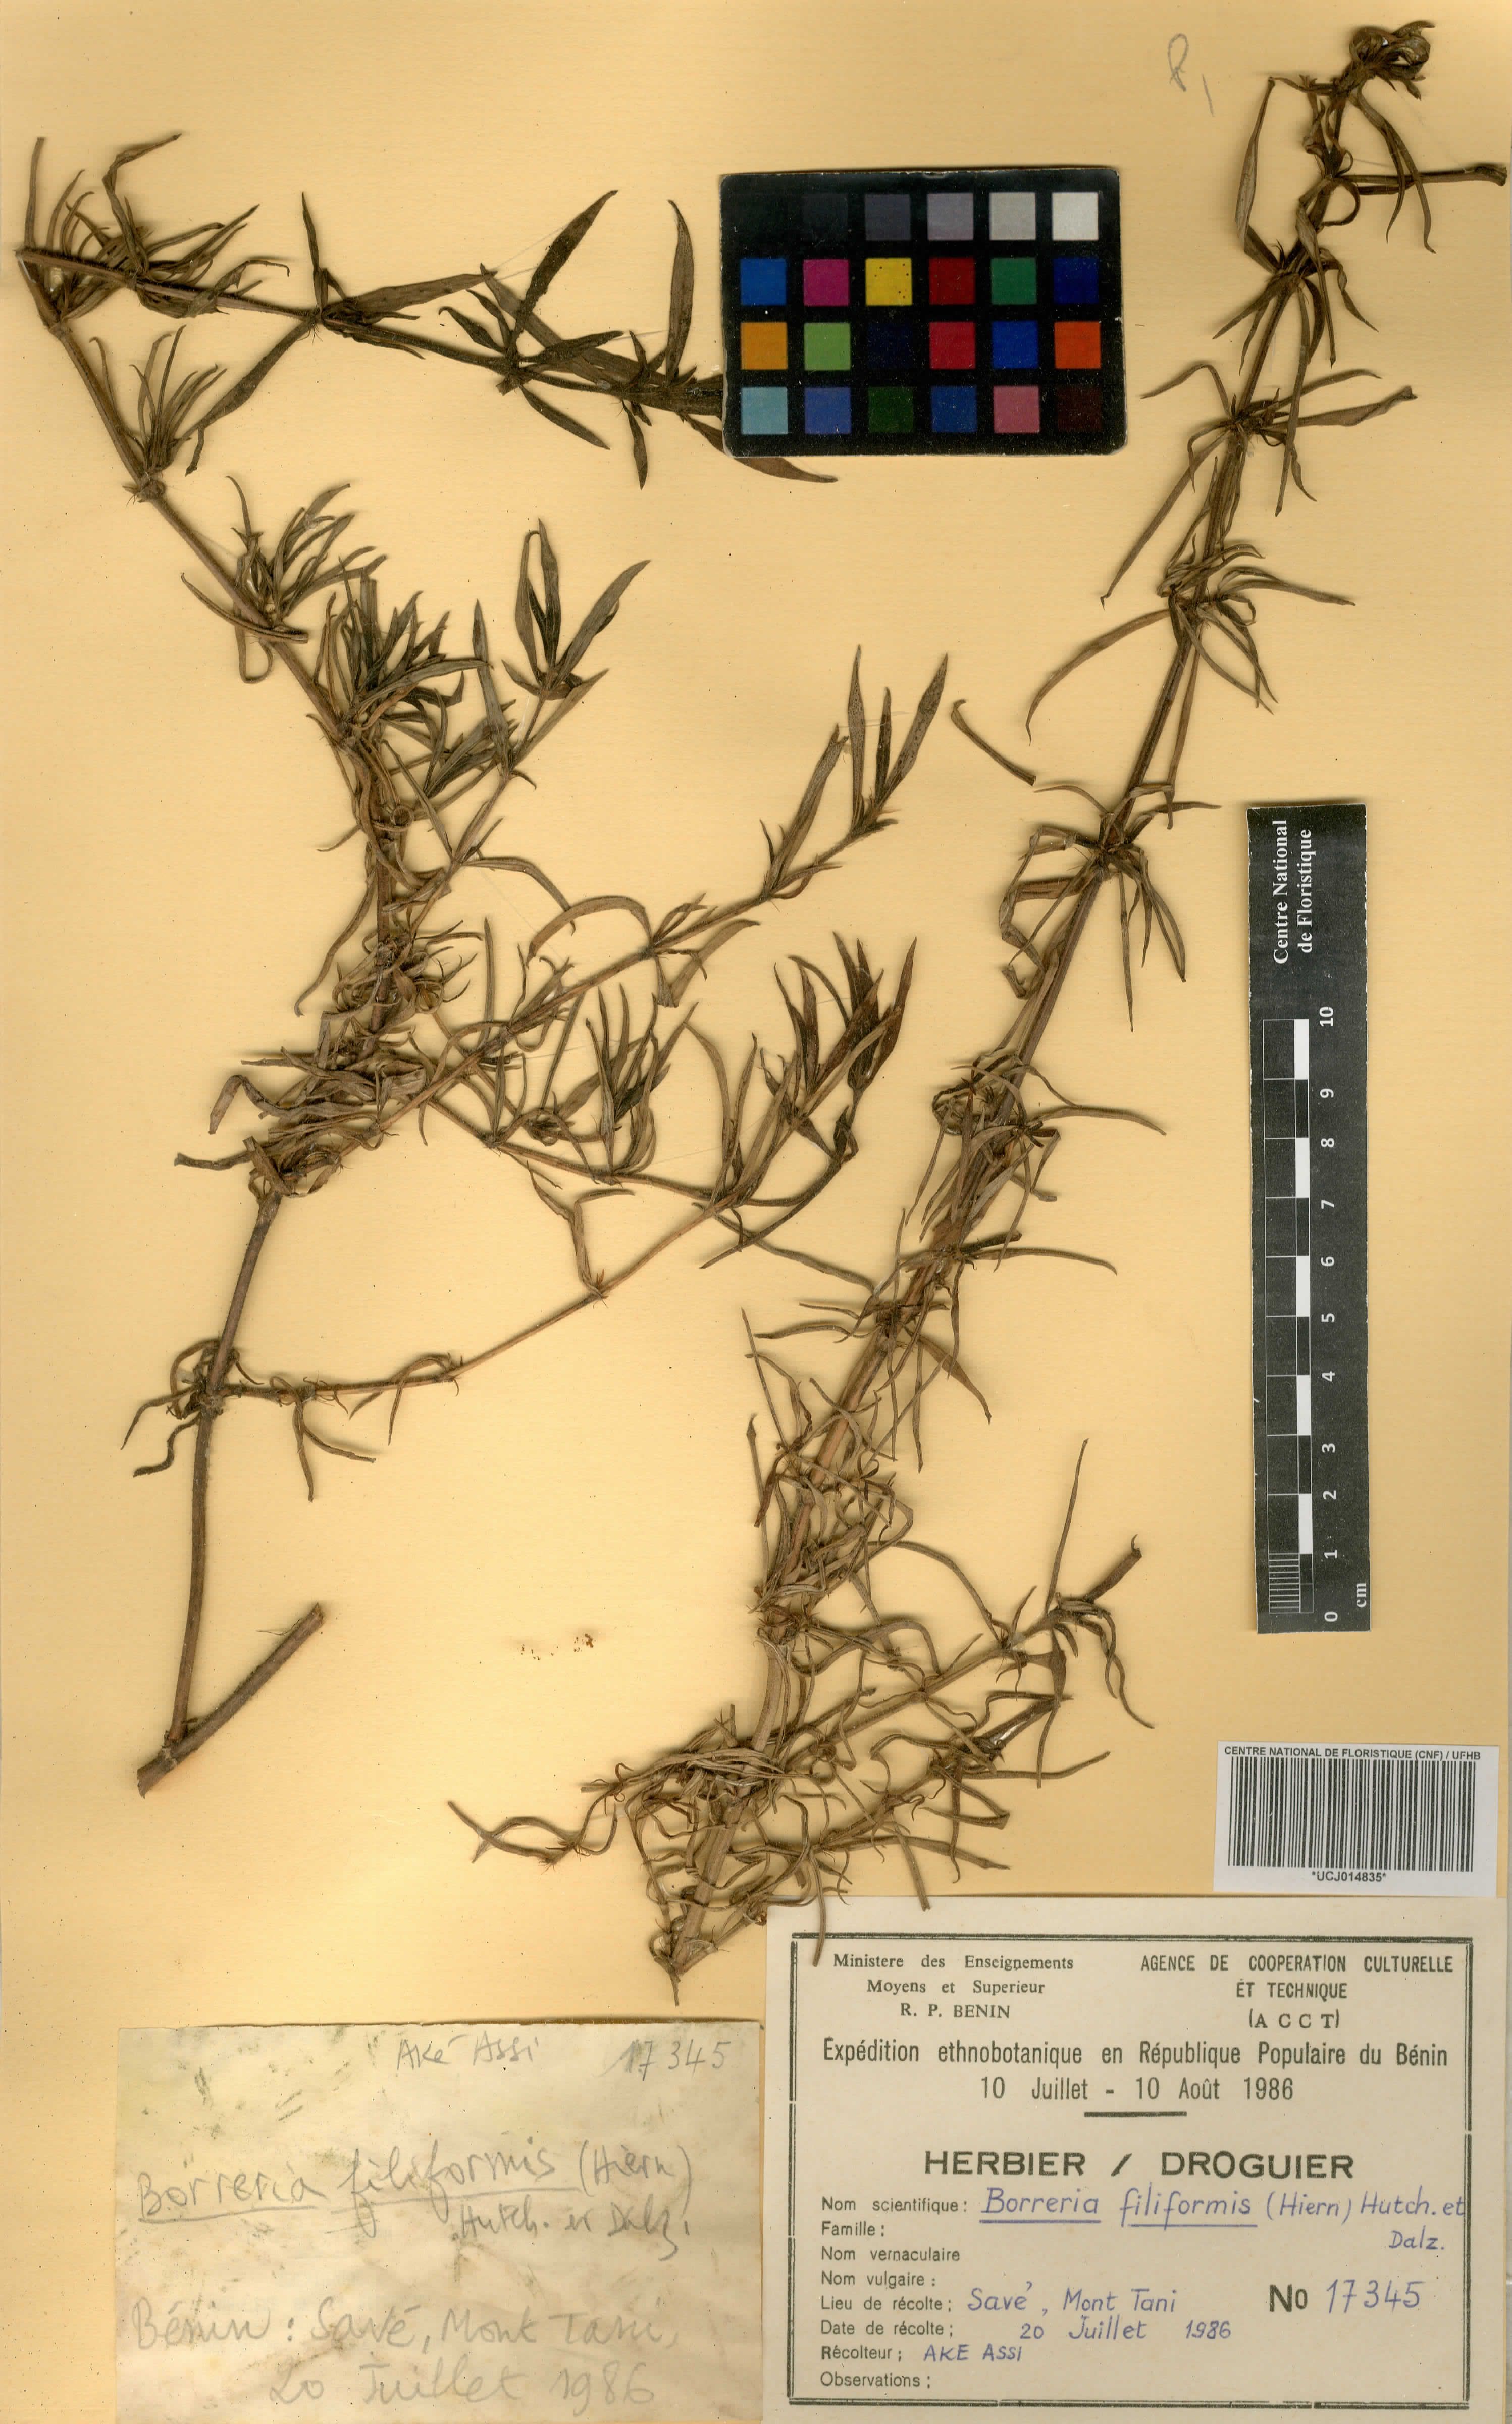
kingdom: Plantae
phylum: Tracheophyta
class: Magnoliopsida
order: Gentianales
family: Rubiaceae
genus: Spermacoce
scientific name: Spermacoce filiformis
